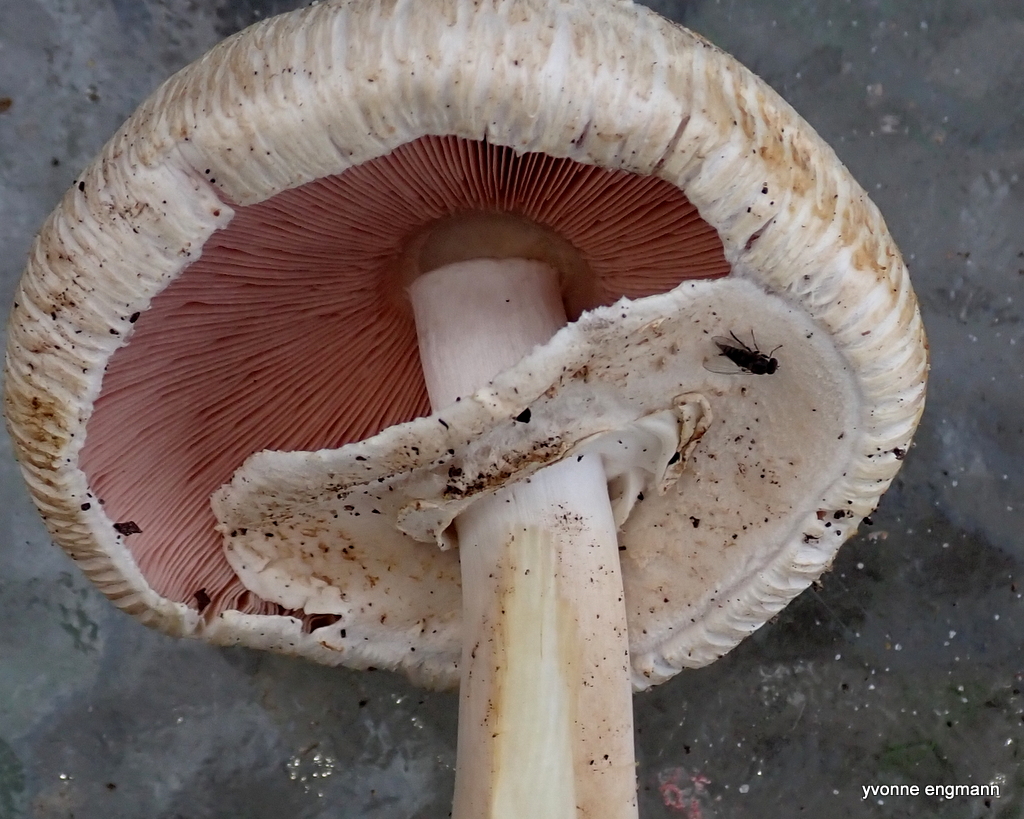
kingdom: Fungi
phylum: Basidiomycota
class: Agaricomycetes
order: Agaricales
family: Agaricaceae
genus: Agaricus
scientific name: Agaricus xanthodermus
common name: karbol-champignon
